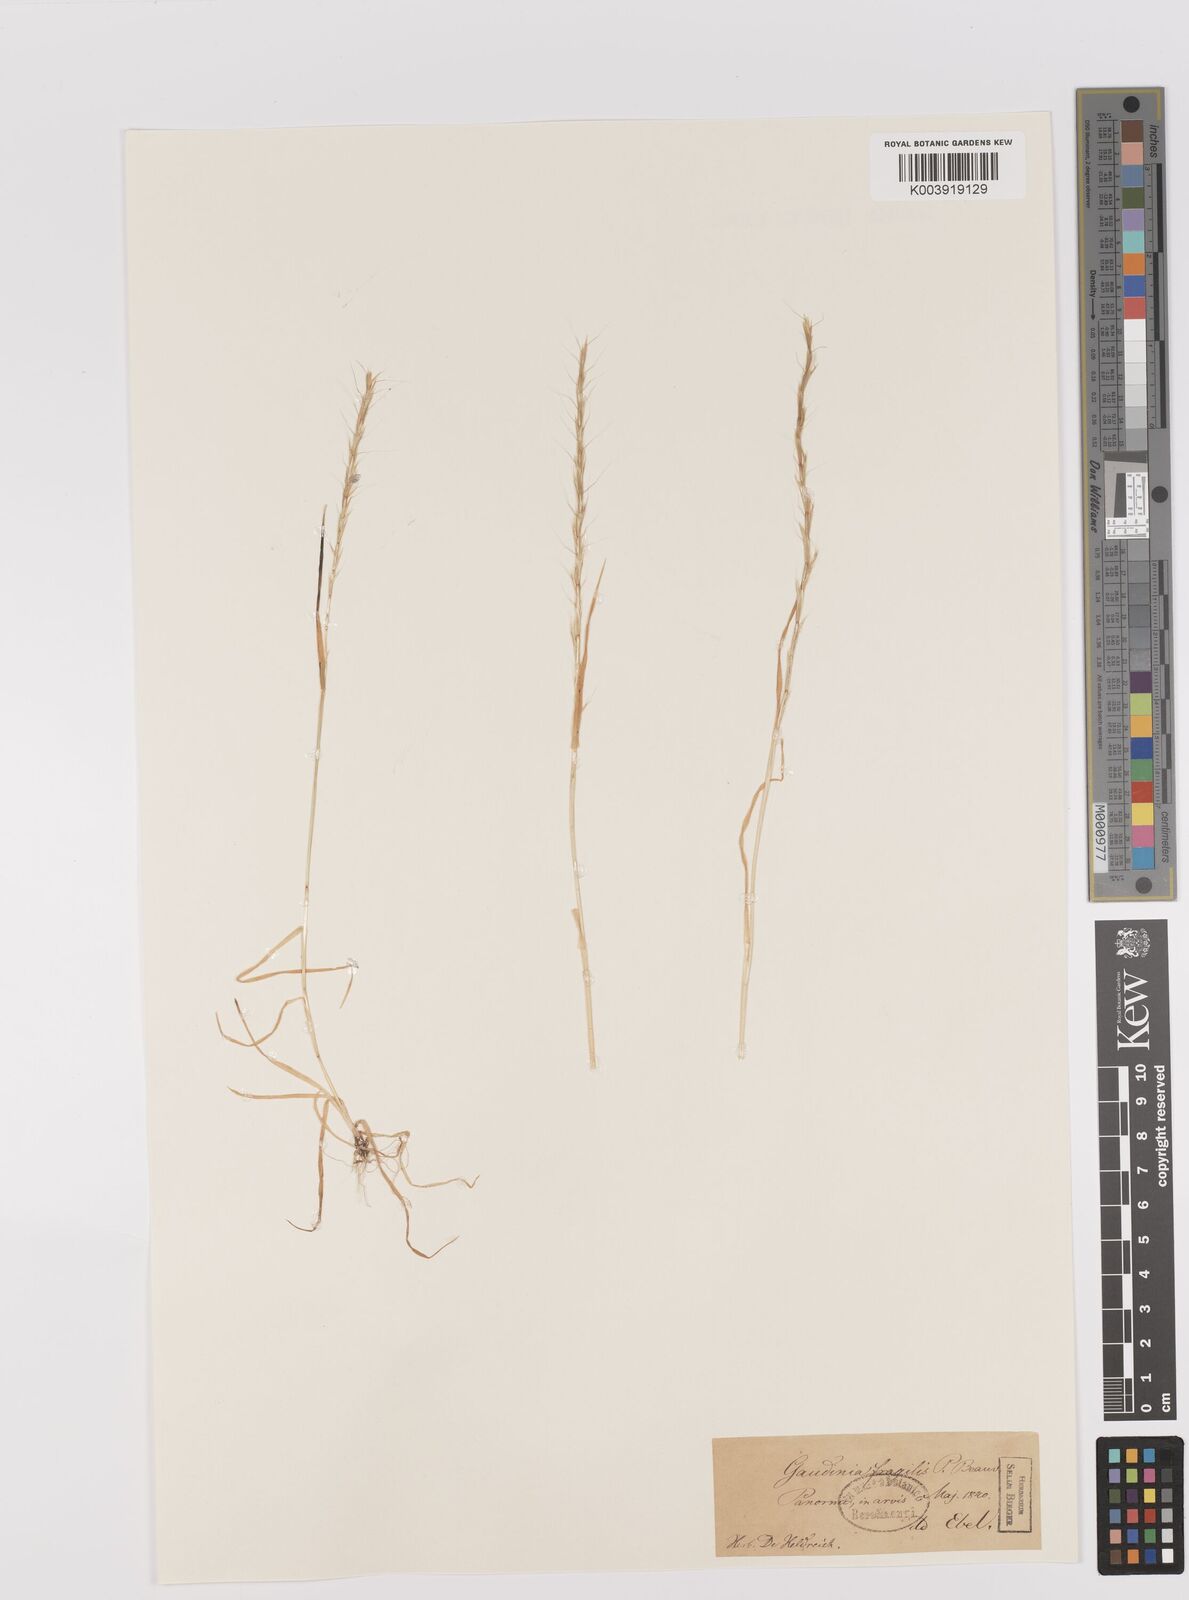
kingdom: Plantae
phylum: Tracheophyta
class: Liliopsida
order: Poales
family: Poaceae
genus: Gaudinia
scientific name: Gaudinia fragilis
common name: French oat-grass
